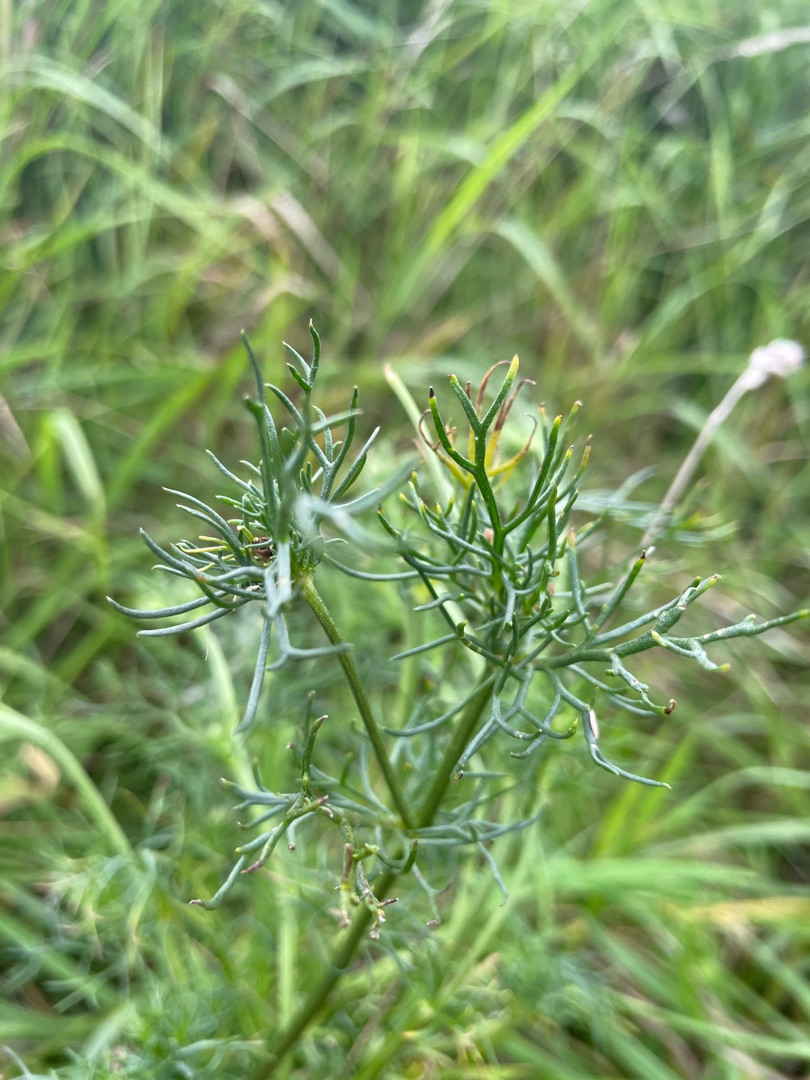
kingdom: Plantae
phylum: Tracheophyta
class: Magnoliopsida
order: Asterales
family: Asteraceae
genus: Tripleurospermum
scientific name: Tripleurospermum inodorum
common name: Lugtløs kamille
